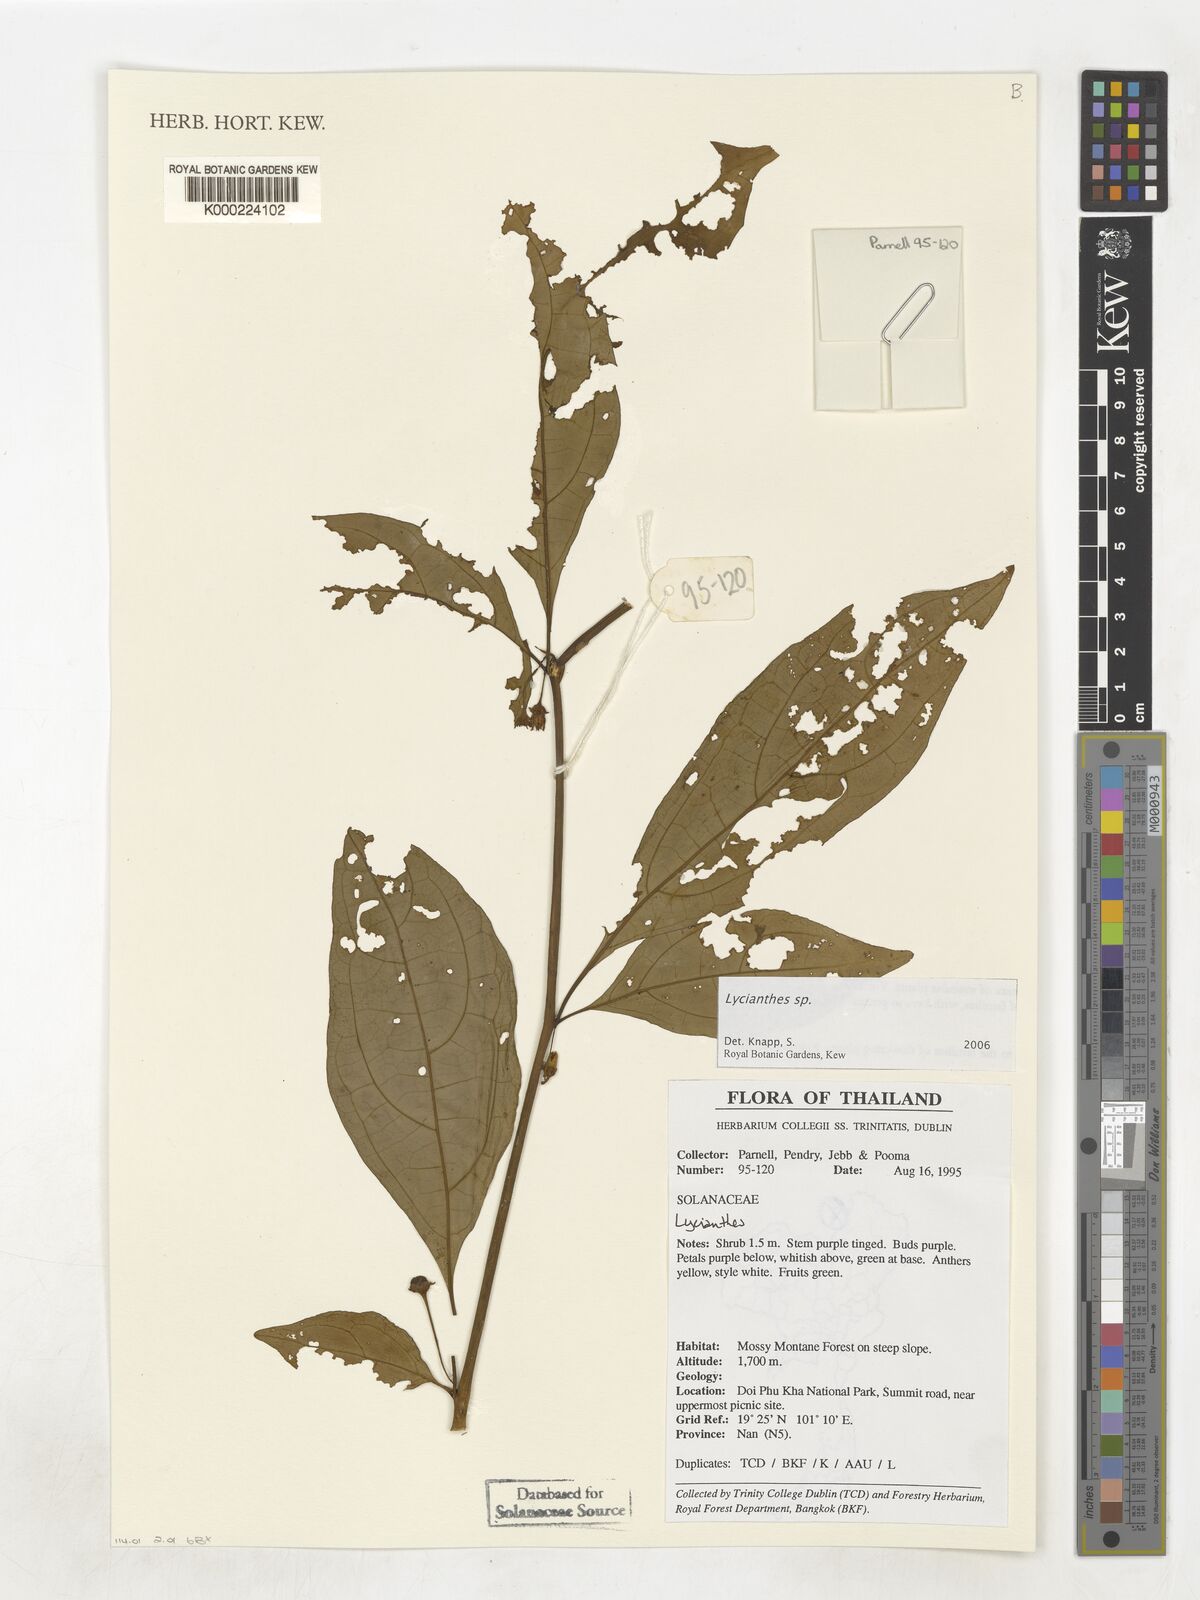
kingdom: Plantae
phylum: Tracheophyta
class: Magnoliopsida
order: Solanales
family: Solanaceae
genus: Lycianthes
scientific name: Lycianthes
